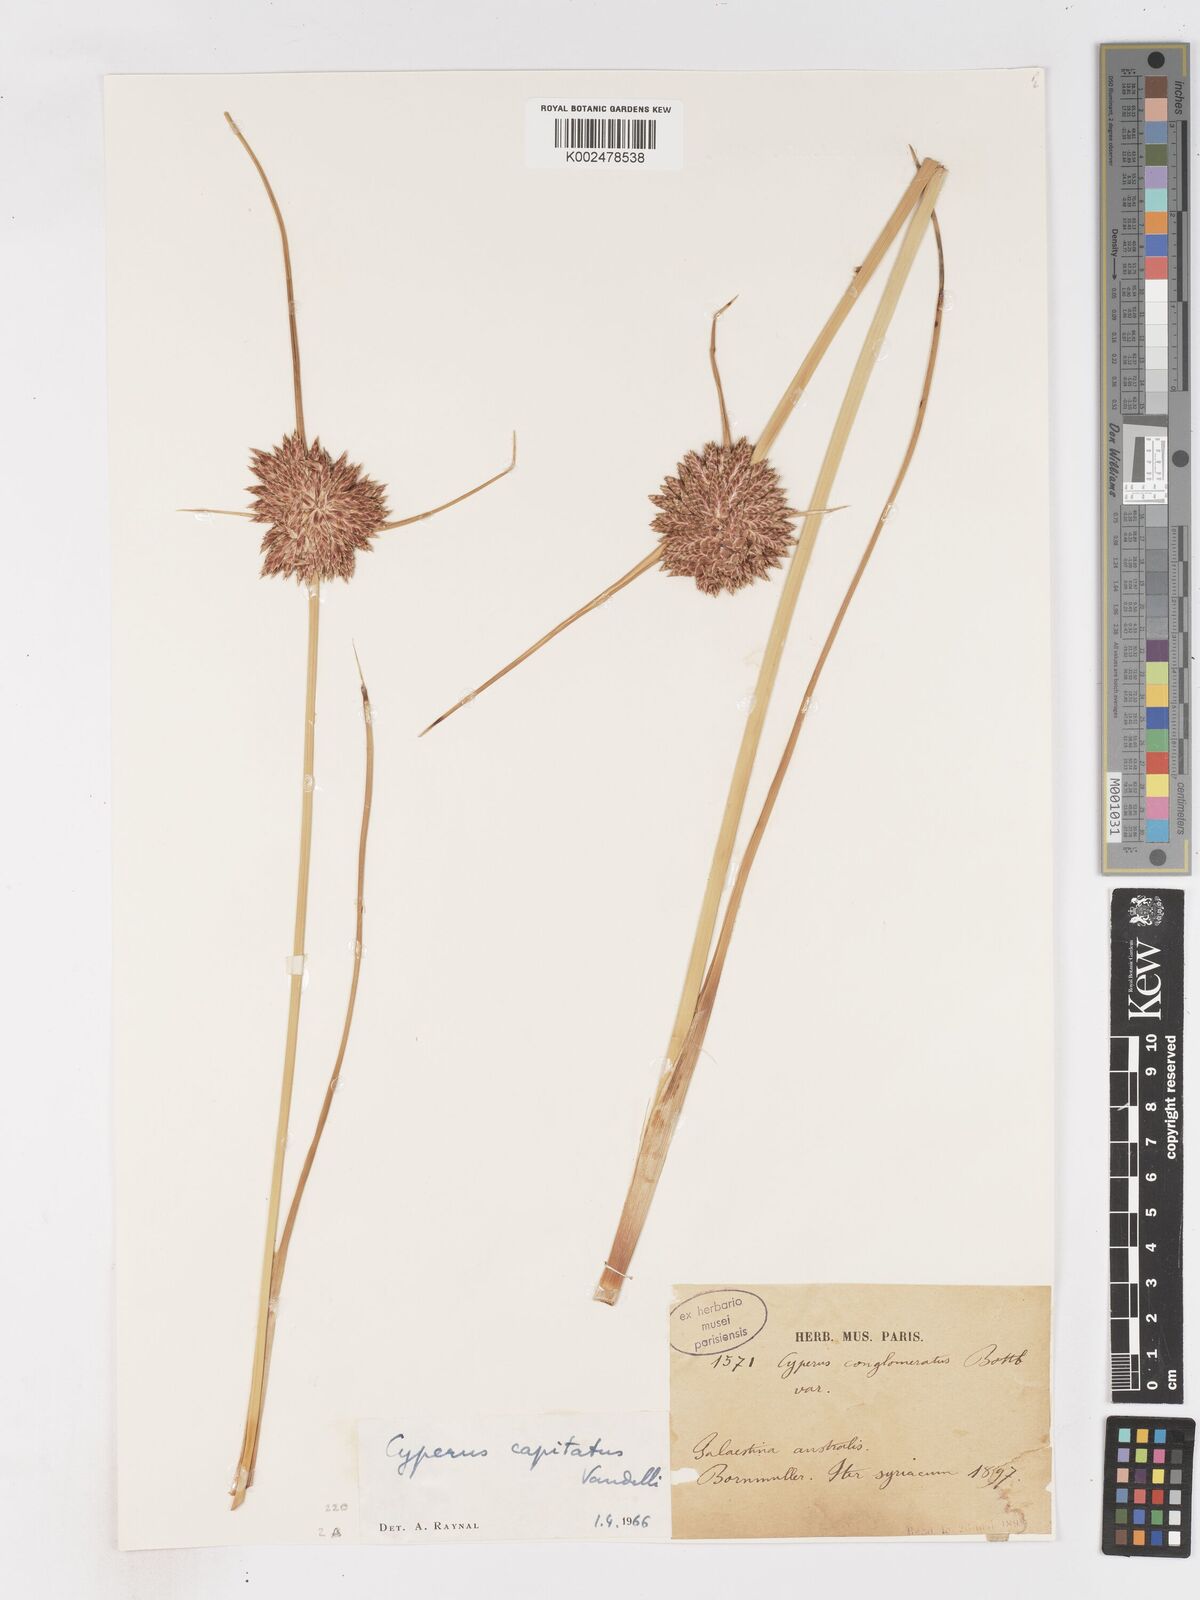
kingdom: Plantae
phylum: Tracheophyta
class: Liliopsida
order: Poales
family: Cyperaceae
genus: Cyperus
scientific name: Cyperus capitatus
